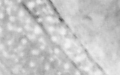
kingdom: Animalia
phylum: Chordata
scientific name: Chordata
